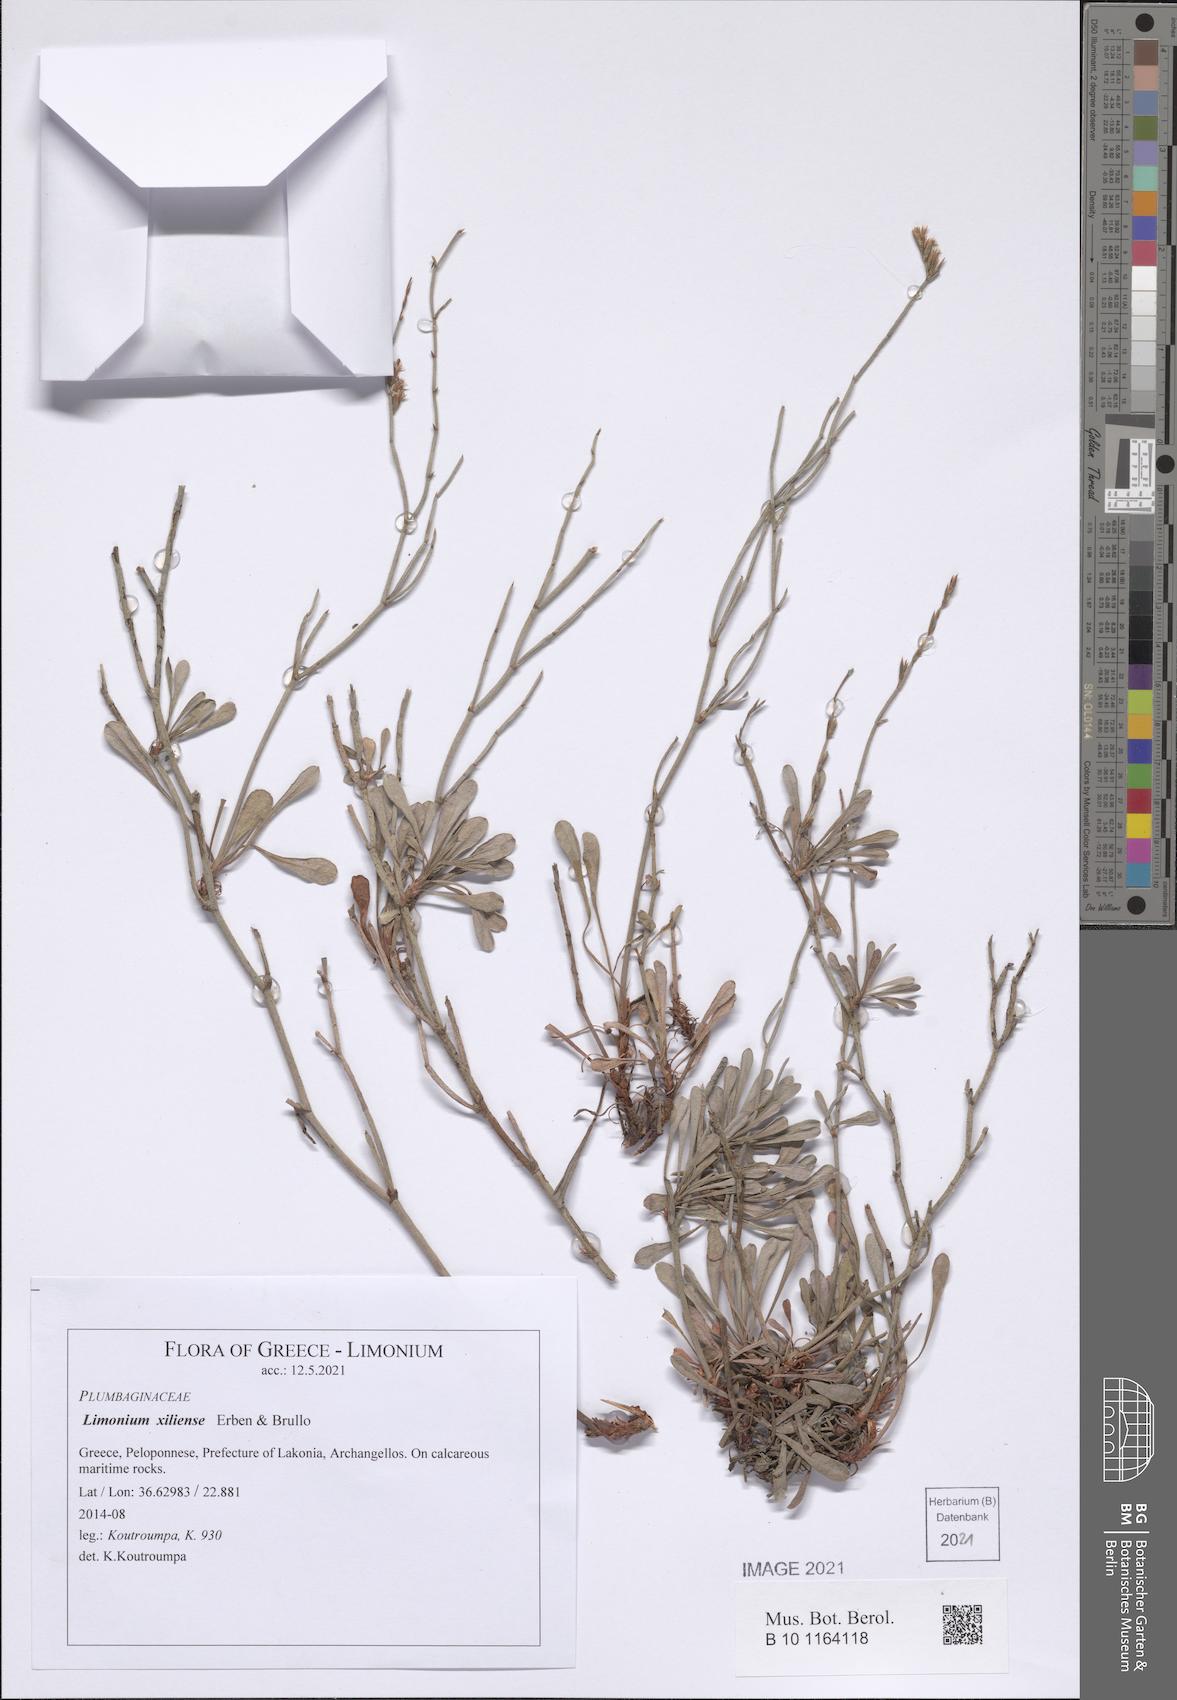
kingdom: Plantae
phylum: Tracheophyta
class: Magnoliopsida
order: Caryophyllales
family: Plumbaginaceae
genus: Limonium
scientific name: Limonium xiliense
